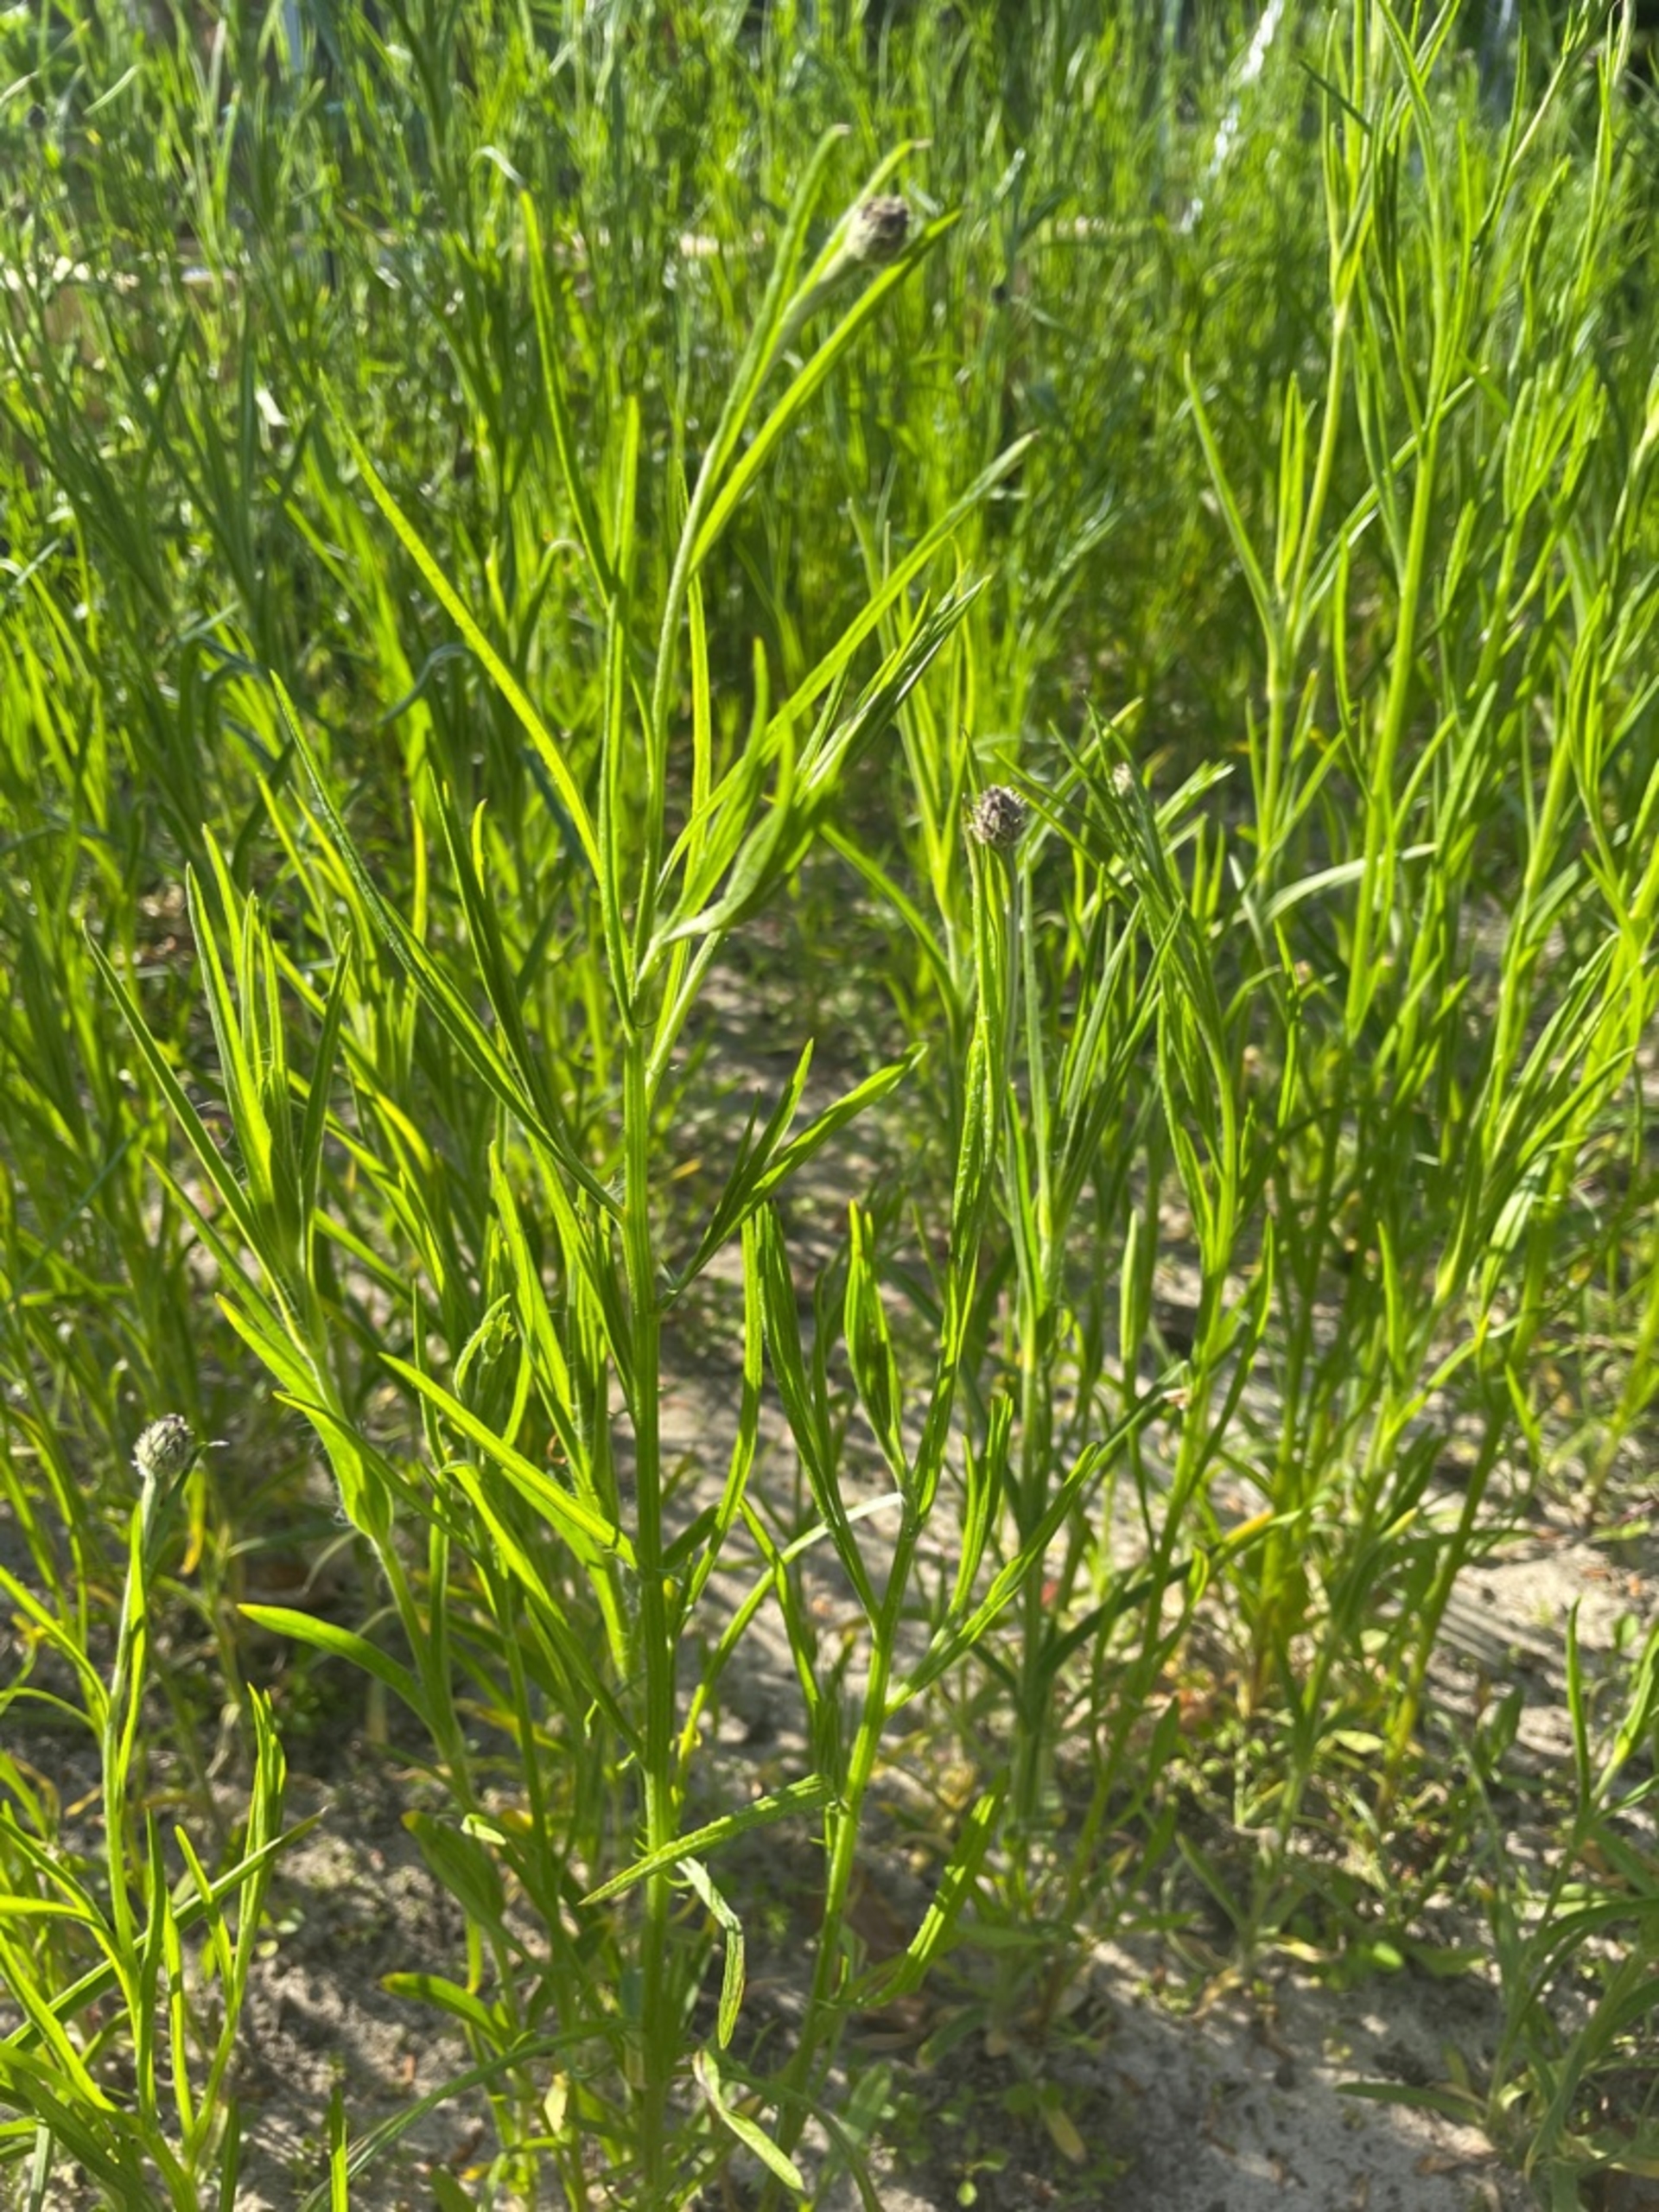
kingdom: Plantae
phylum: Tracheophyta
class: Magnoliopsida
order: Asterales
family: Asteraceae
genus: Centaurea
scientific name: Centaurea cyanus
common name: Kornblomst
